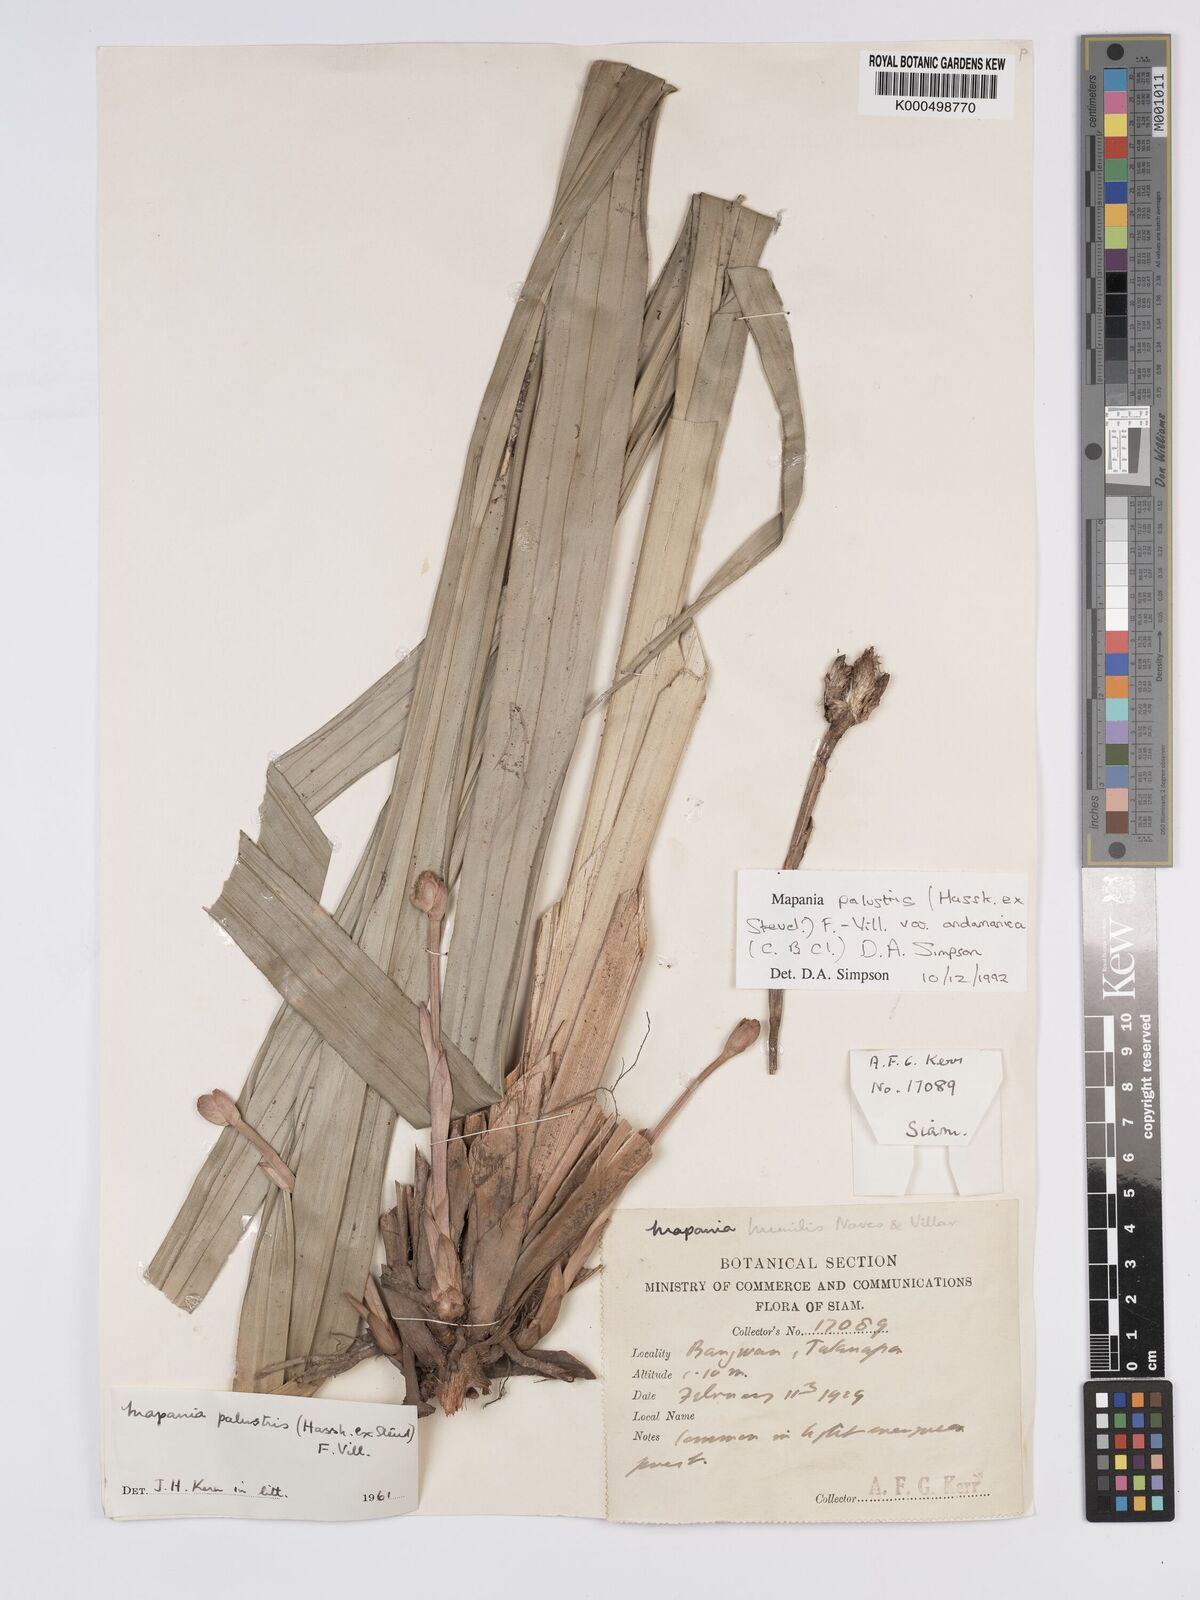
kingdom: Plantae
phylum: Tracheophyta
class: Liliopsida
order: Poales
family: Cyperaceae
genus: Mapania
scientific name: Mapania palustris
